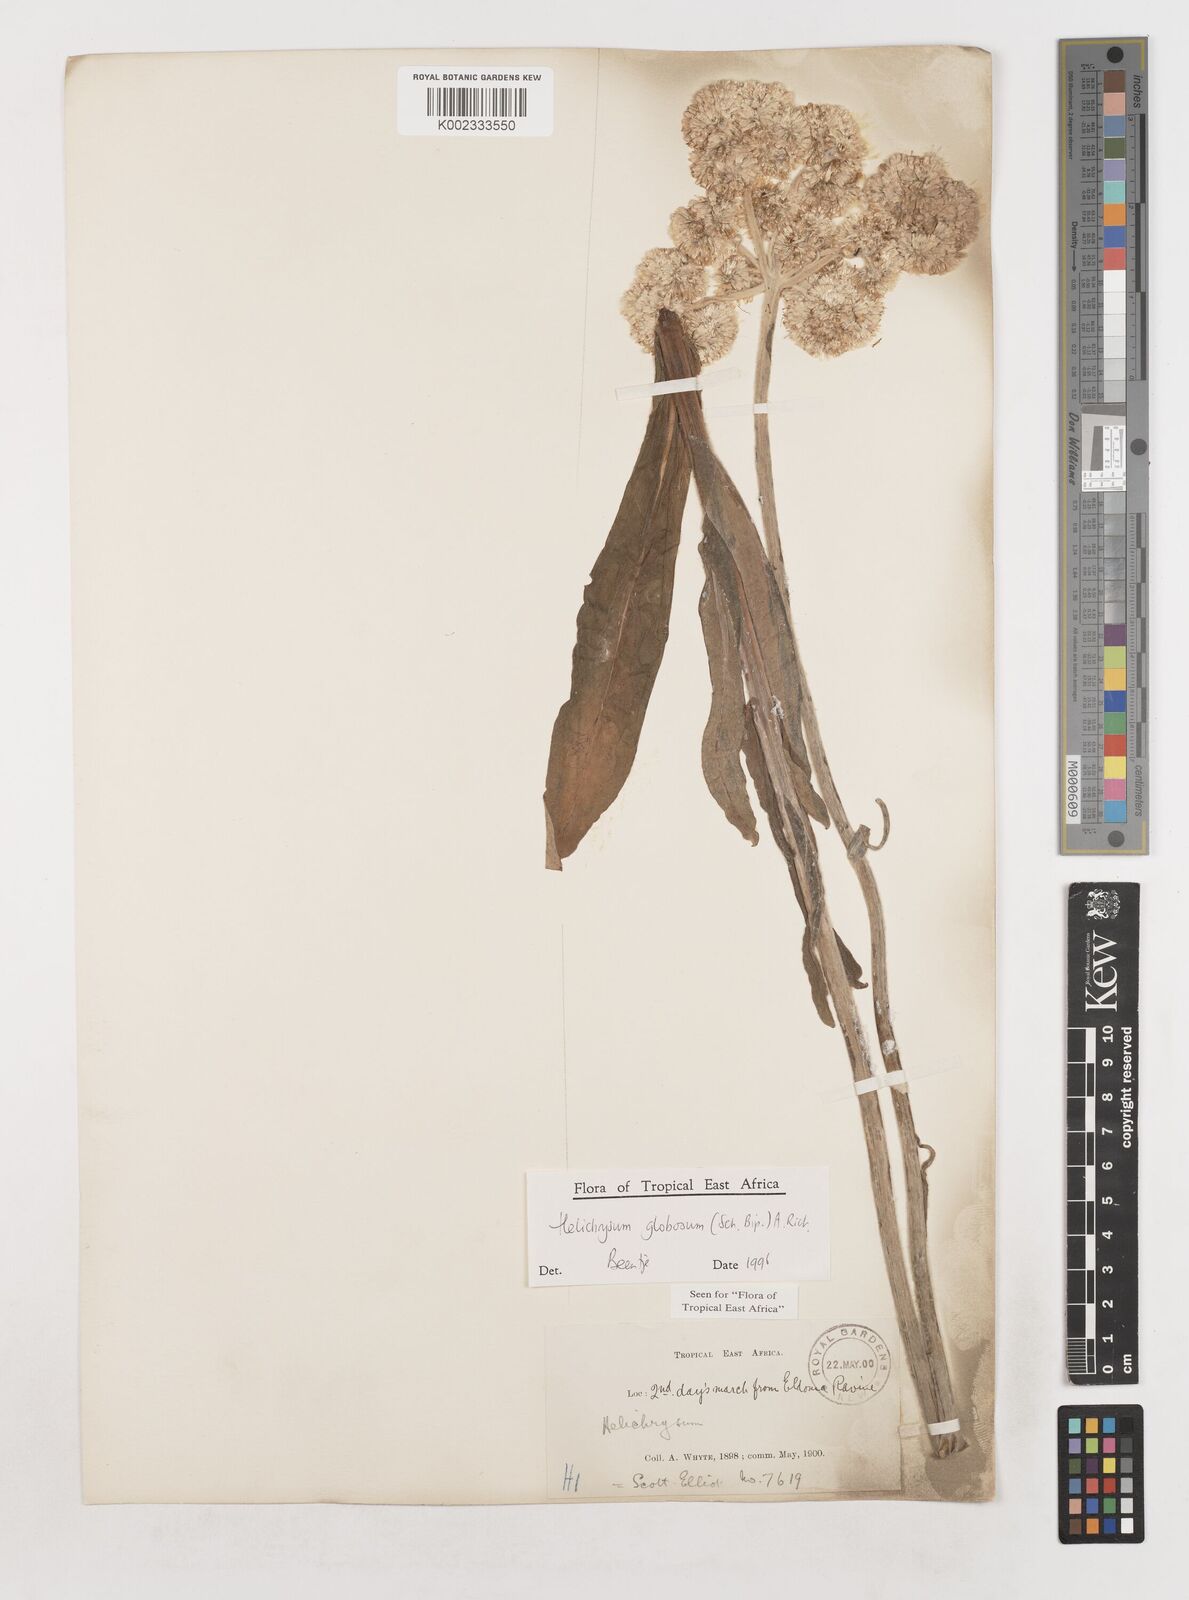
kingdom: Plantae
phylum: Tracheophyta
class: Magnoliopsida
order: Asterales
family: Asteraceae
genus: Helichrysum
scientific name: Helichrysum globosum
